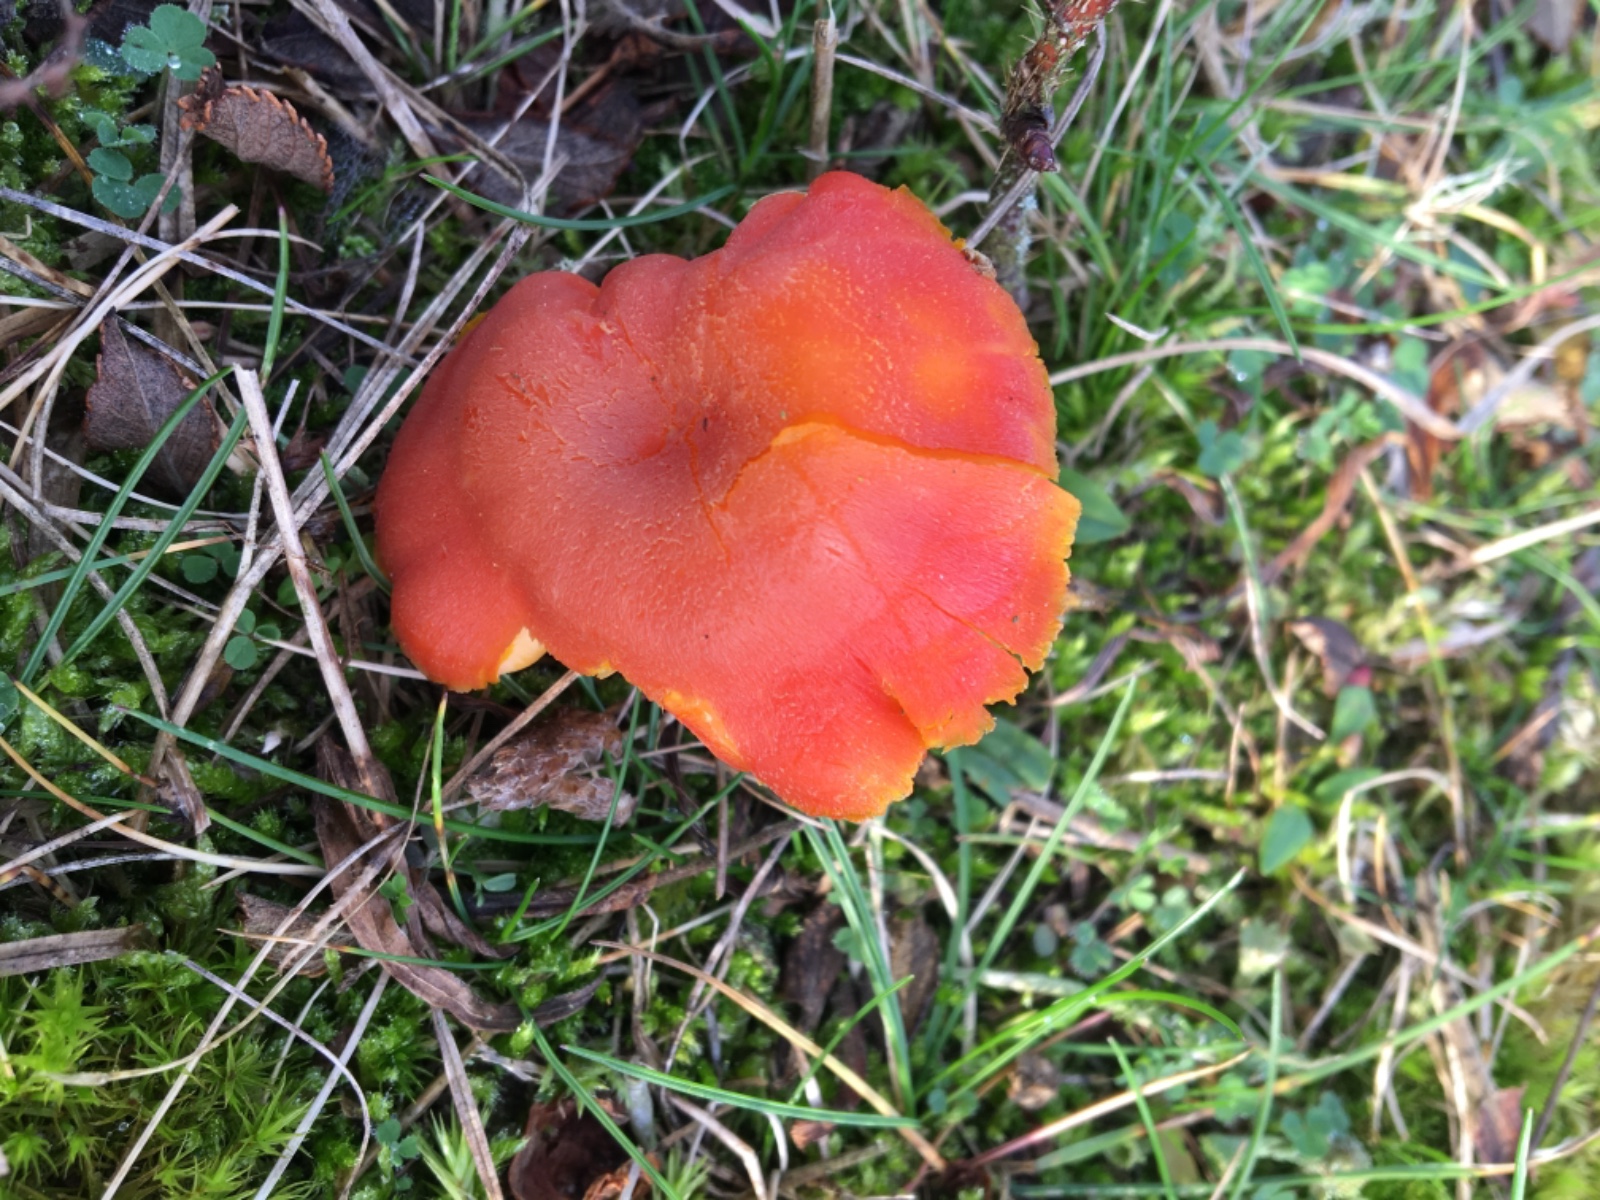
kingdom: Fungi
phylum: Basidiomycota
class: Agaricomycetes
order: Agaricales
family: Hygrophoraceae
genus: Hygrocybe
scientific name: Hygrocybe miniata
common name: mønje-vokshat
